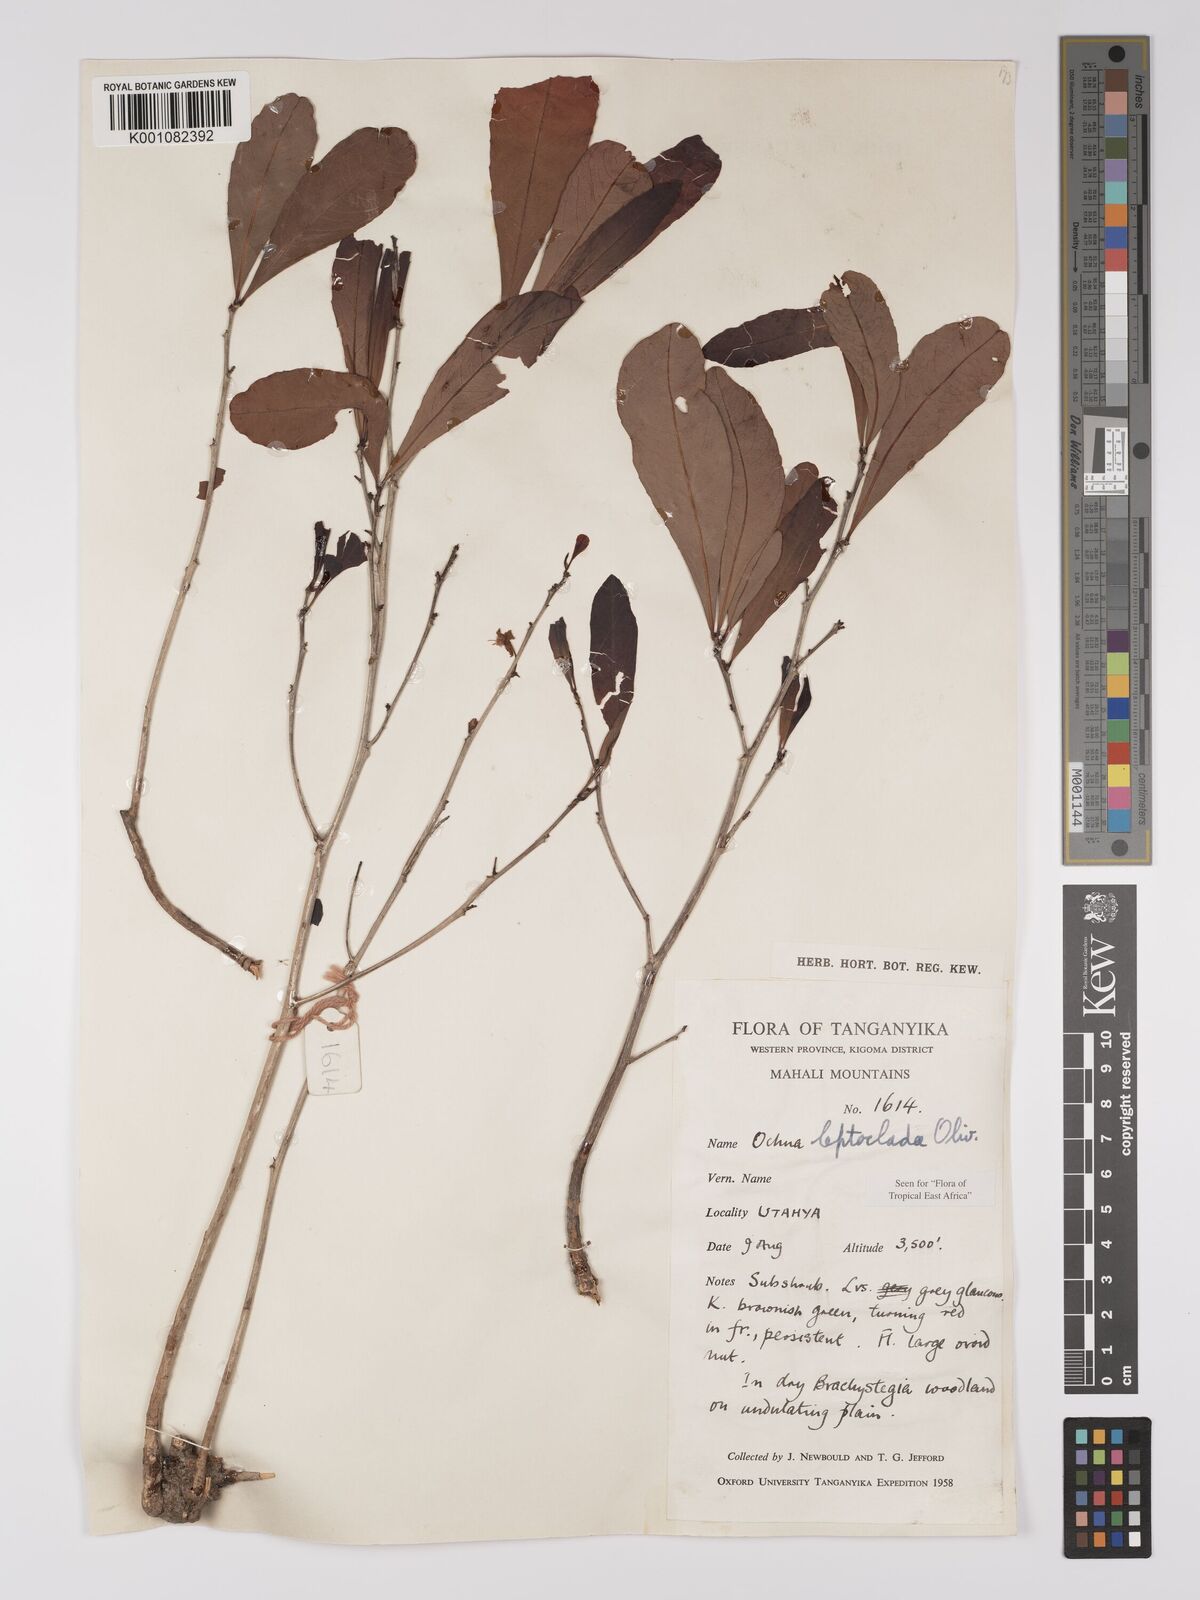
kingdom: Plantae
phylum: Tracheophyta
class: Magnoliopsida
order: Malpighiales
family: Ochnaceae
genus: Ochna
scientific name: Ochna leptoclada
